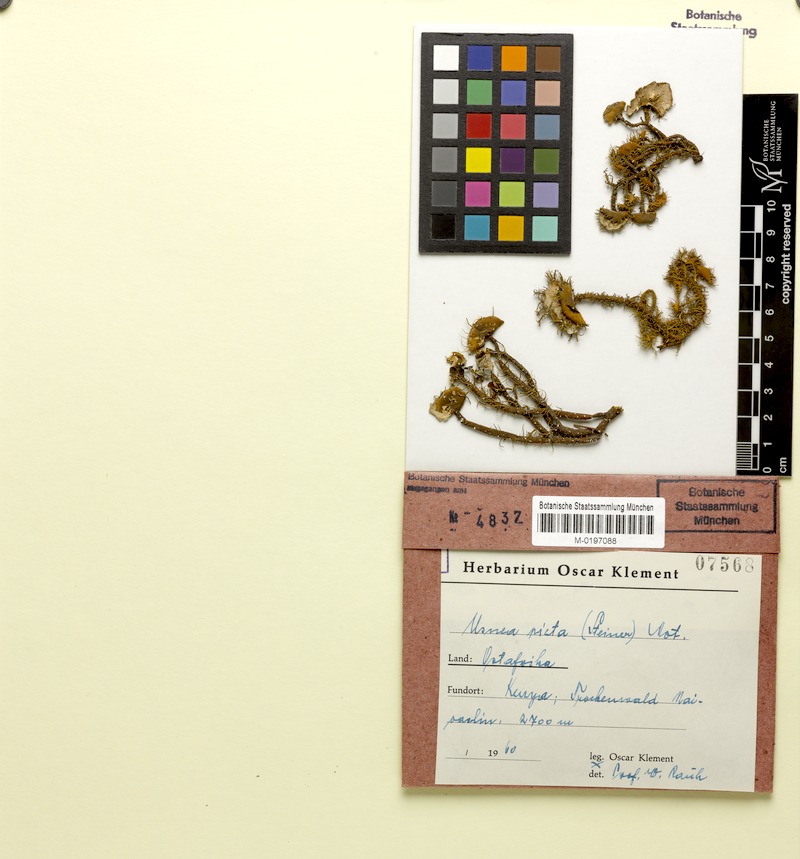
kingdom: Fungi
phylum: Ascomycota
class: Lecanoromycetes
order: Lecanorales
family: Parmeliaceae
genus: Usnea
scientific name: Usnea picta
